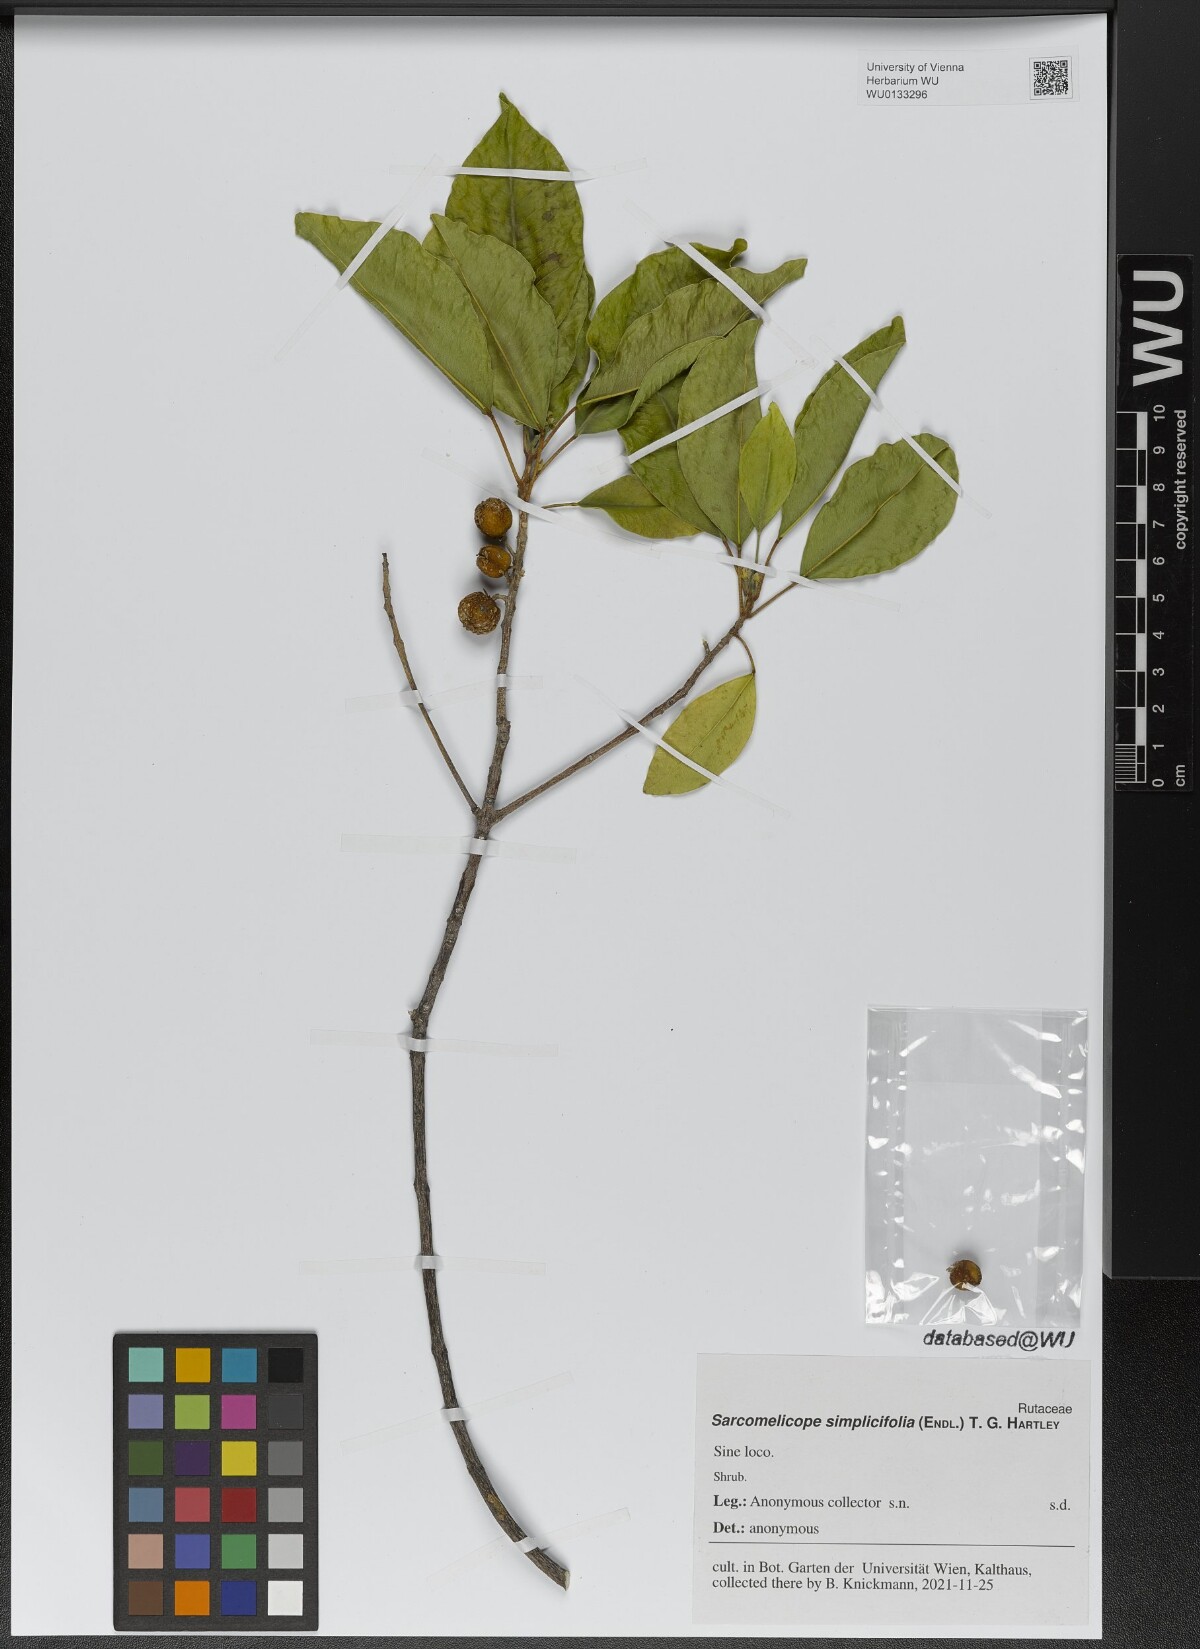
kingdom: Plantae
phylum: Tracheophyta
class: Magnoliopsida
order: Sapindales
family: Rutaceae
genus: Sarcomelicope
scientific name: Sarcomelicope simplicifolia
